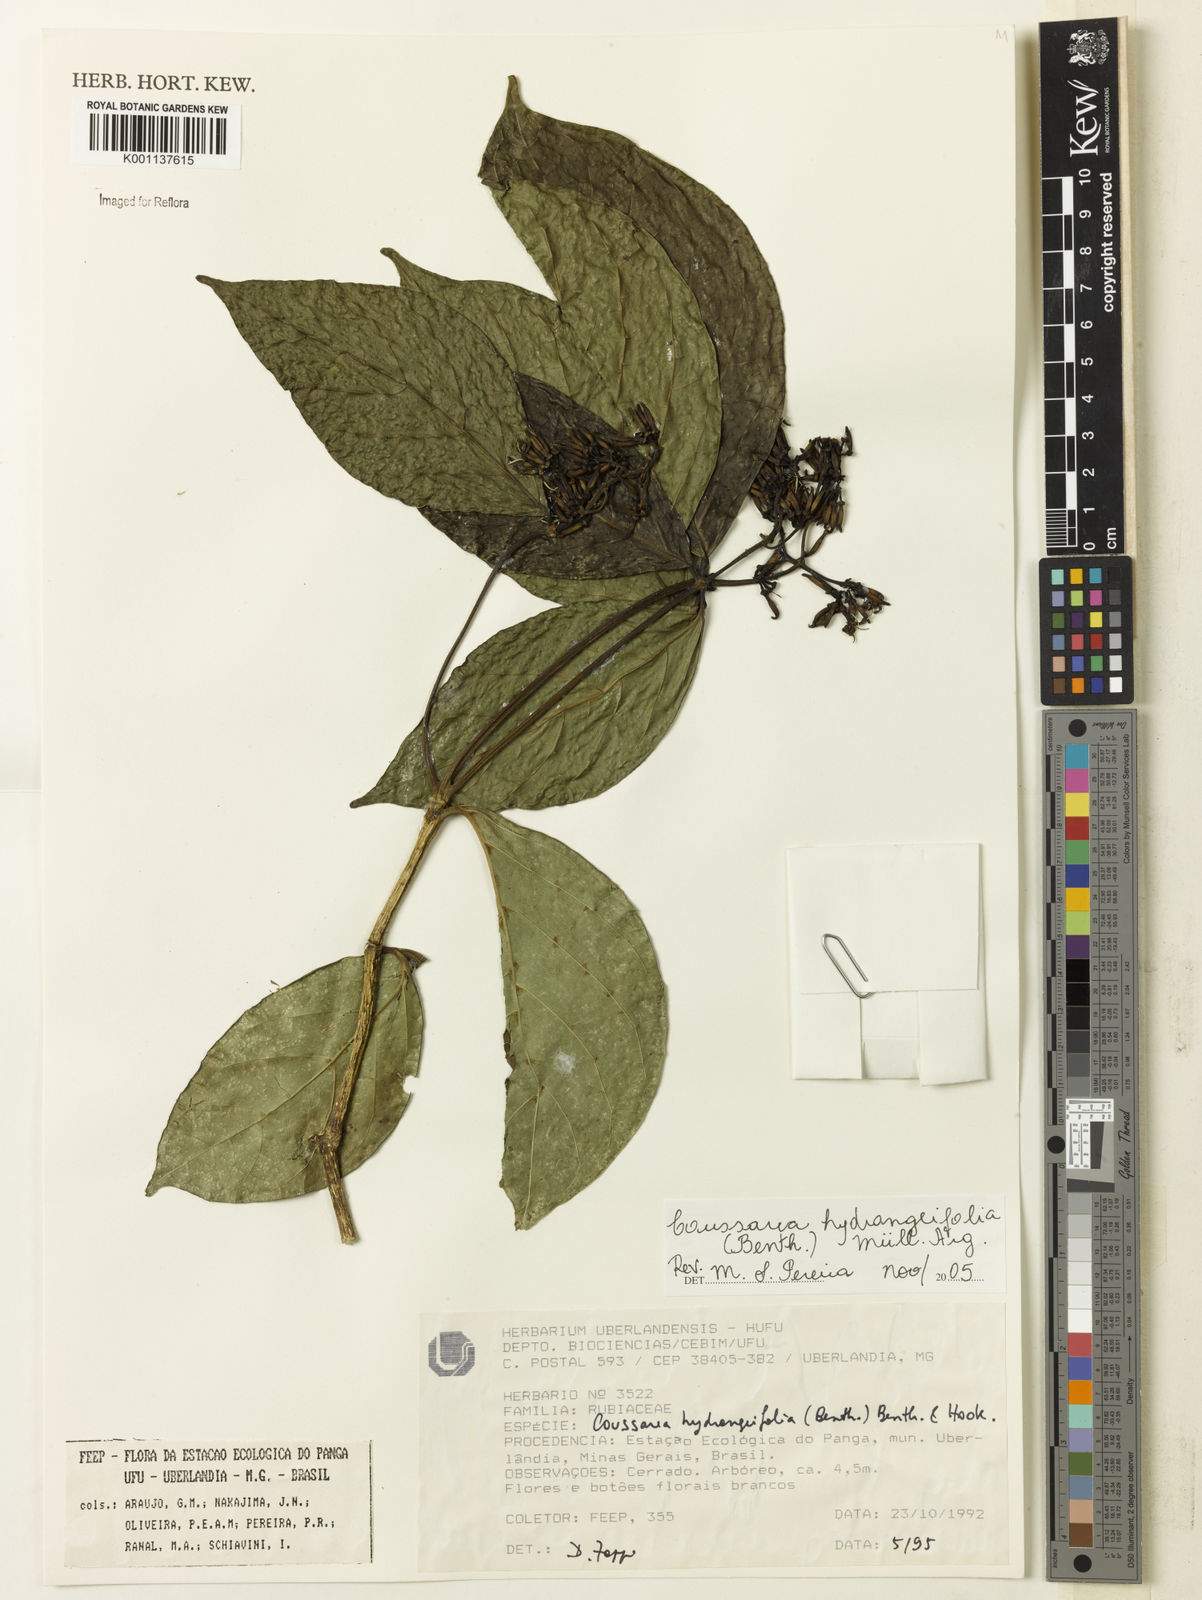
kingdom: Plantae
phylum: Tracheophyta
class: Magnoliopsida
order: Gentianales
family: Rubiaceae
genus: Coussarea
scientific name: Coussarea
